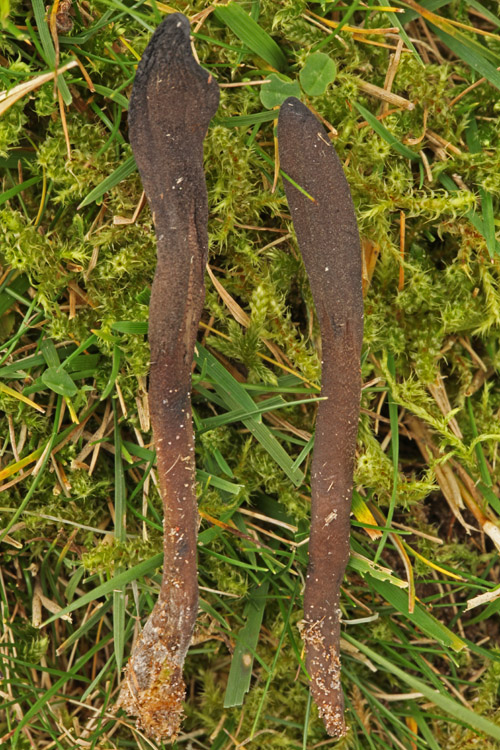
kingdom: Fungi
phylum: Ascomycota
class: Geoglossomycetes
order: Geoglossales
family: Geoglossaceae
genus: Geoglossum
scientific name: Geoglossum fallax
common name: småskællet jordtunge
